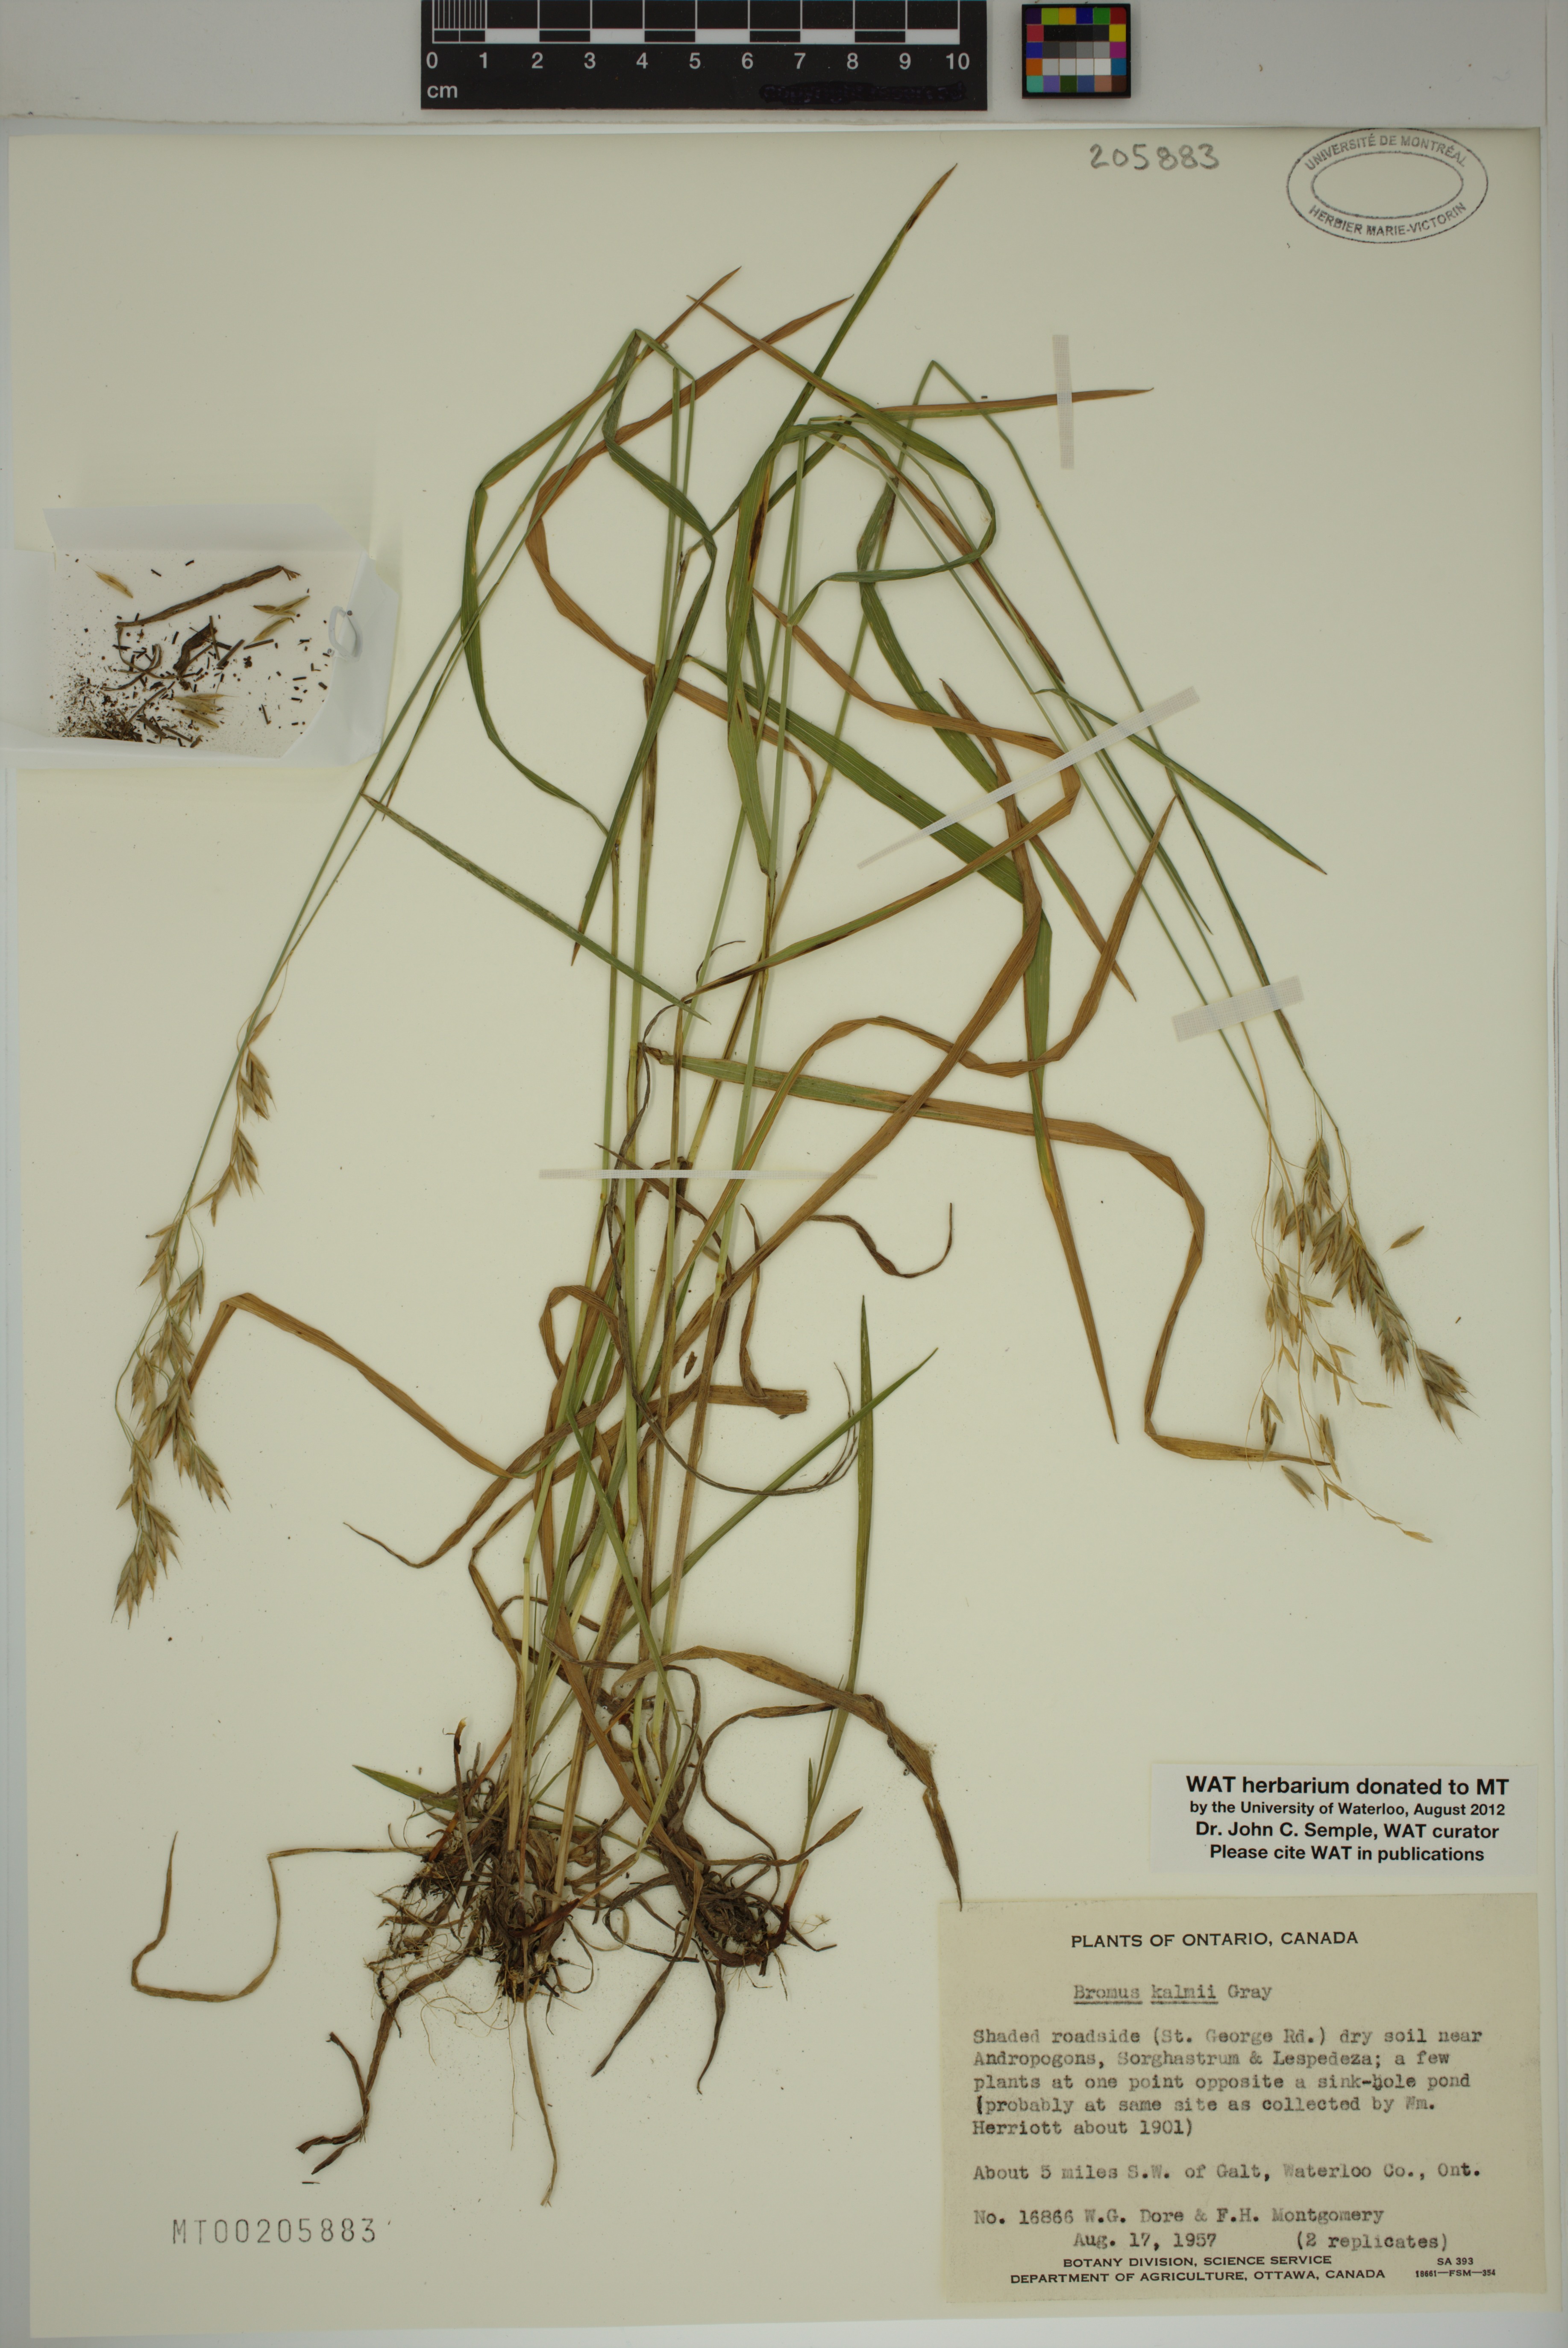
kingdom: Plantae
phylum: Tracheophyta
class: Liliopsida
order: Poales
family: Poaceae
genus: Bromus
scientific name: Bromus kalmii
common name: Kalm brome
